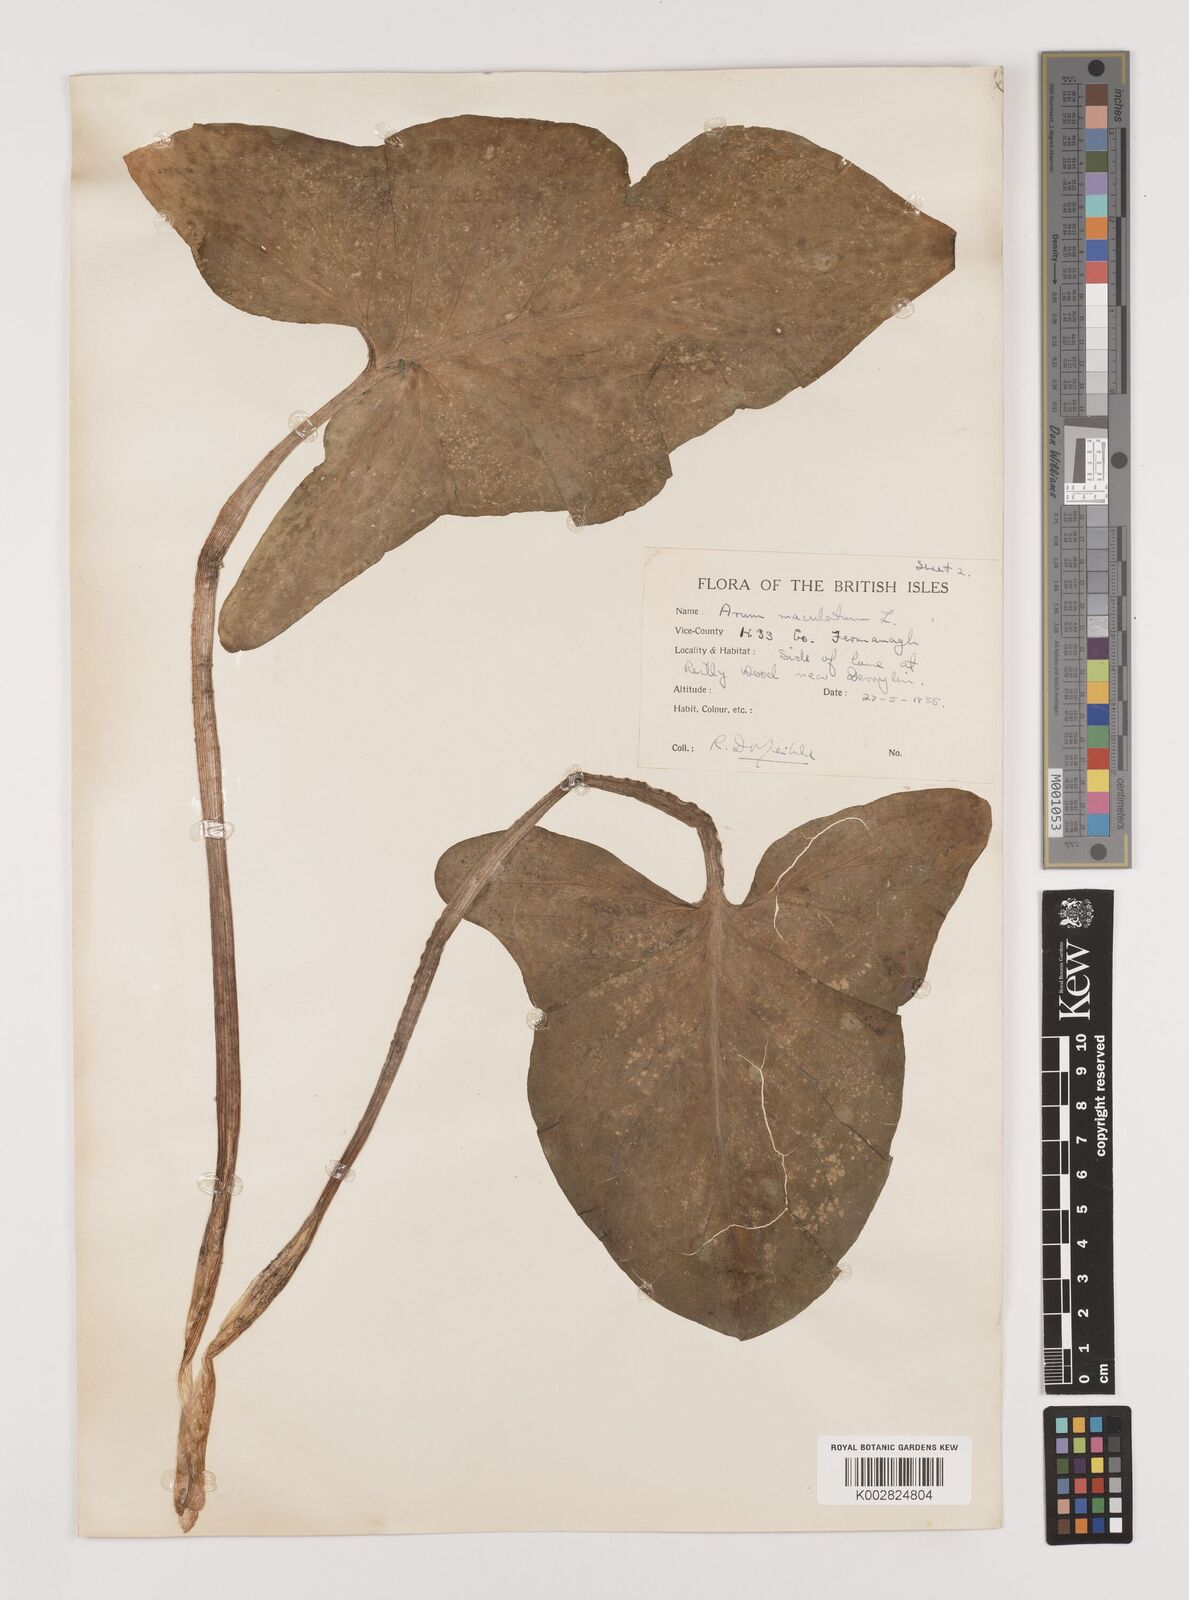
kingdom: Plantae
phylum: Tracheophyta
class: Liliopsida
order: Alismatales
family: Araceae
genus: Arum
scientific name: Arum maculatum
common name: Lords-and-ladies
